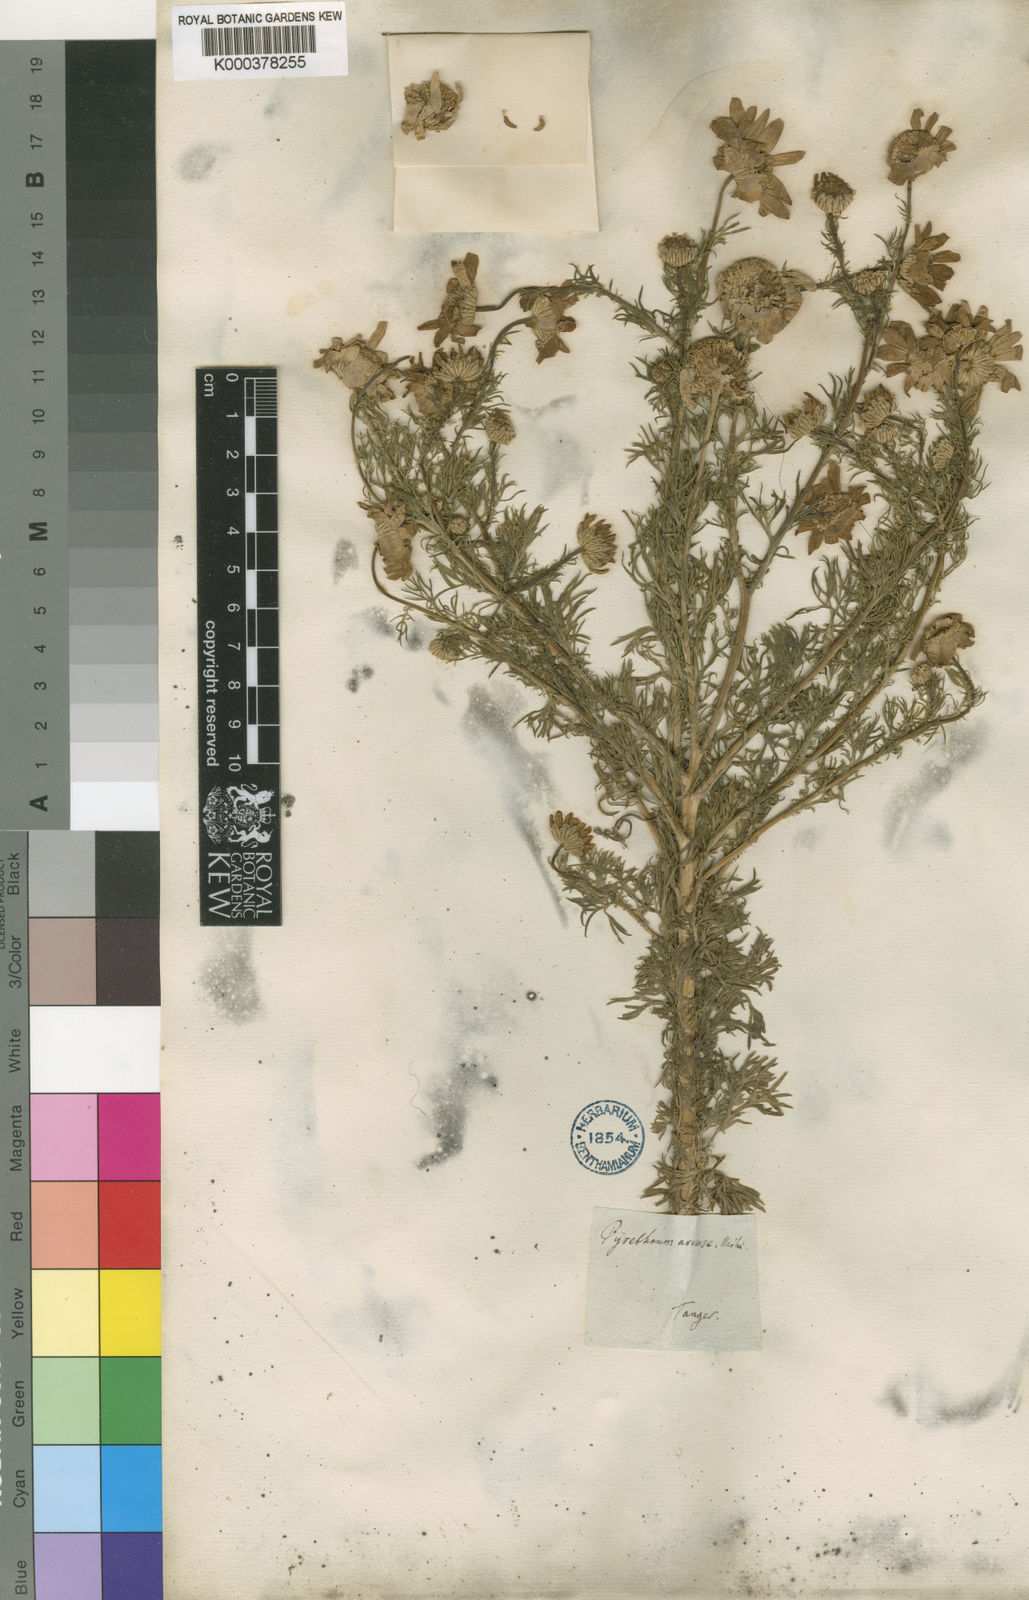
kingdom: Plantae
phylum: Tracheophyta
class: Magnoliopsida
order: Asterales
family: Asteraceae
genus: Gibbaria
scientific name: Gibbaria glabra
